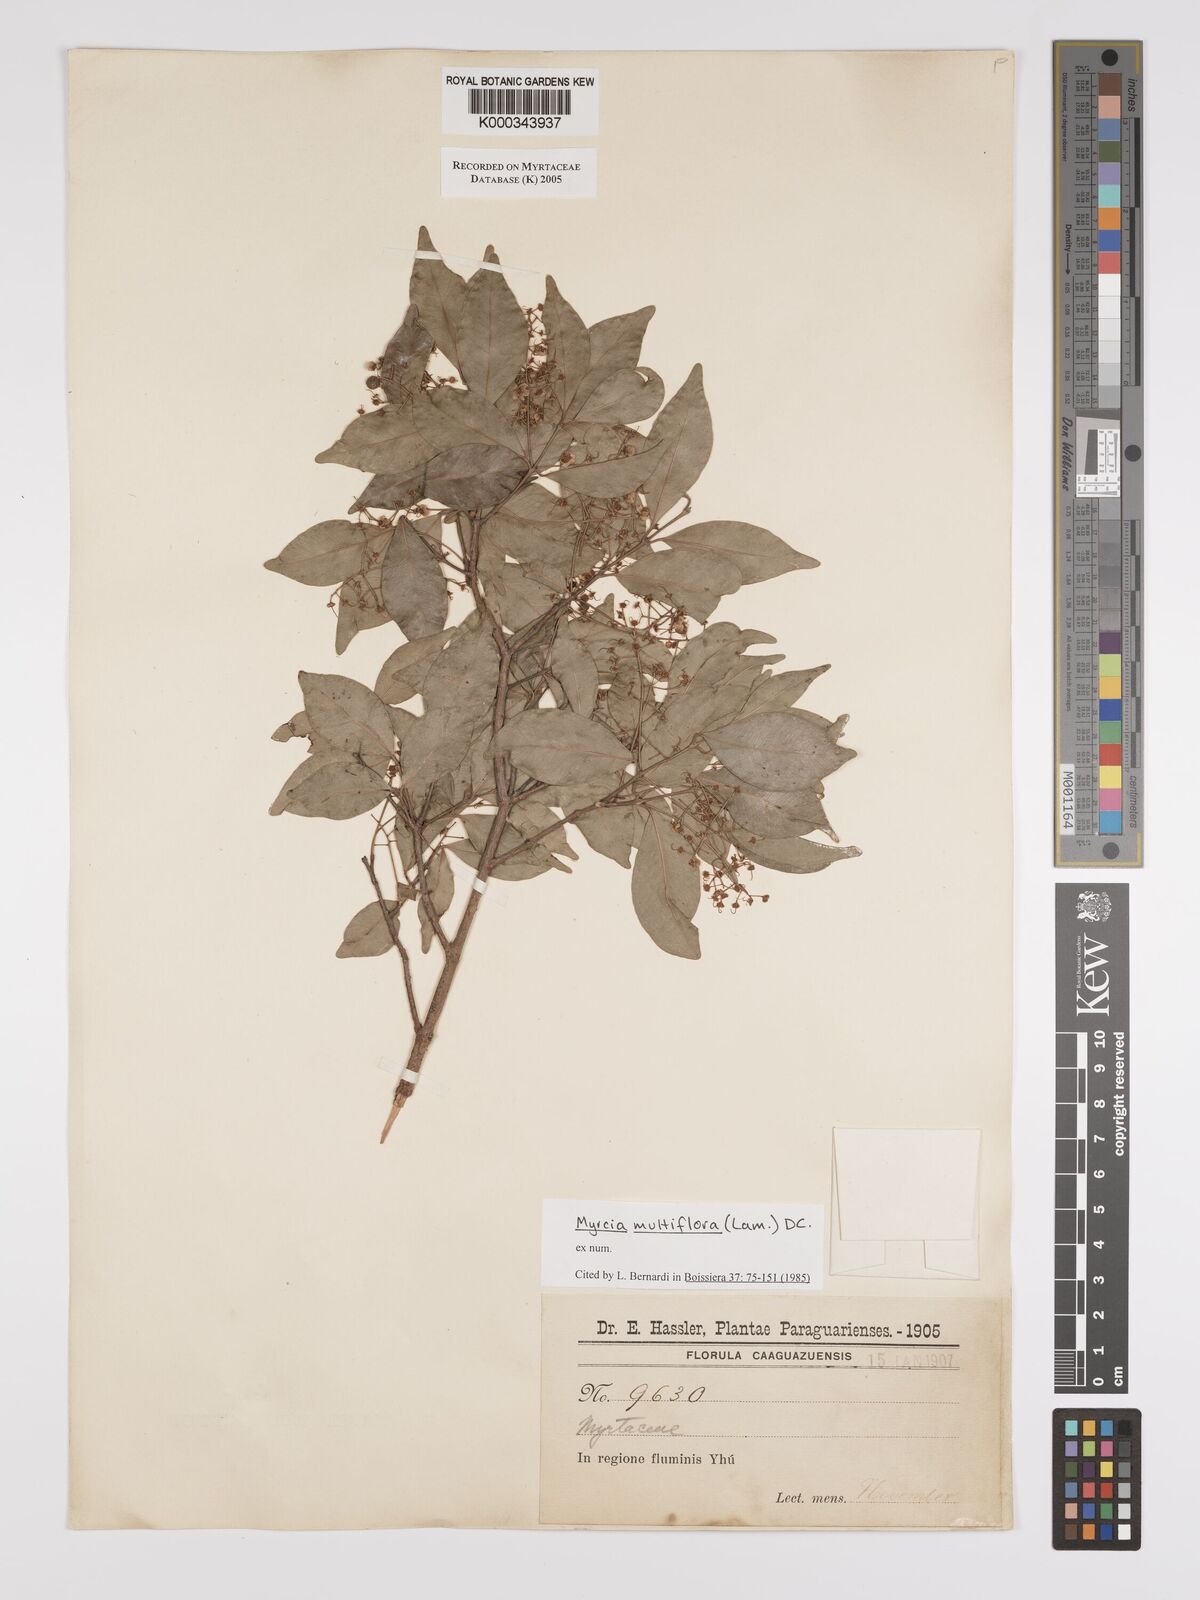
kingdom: Plantae
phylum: Tracheophyta
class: Magnoliopsida
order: Myrtales
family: Myrtaceae
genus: Myrcia
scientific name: Myrcia multiflora
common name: Pedra hume
